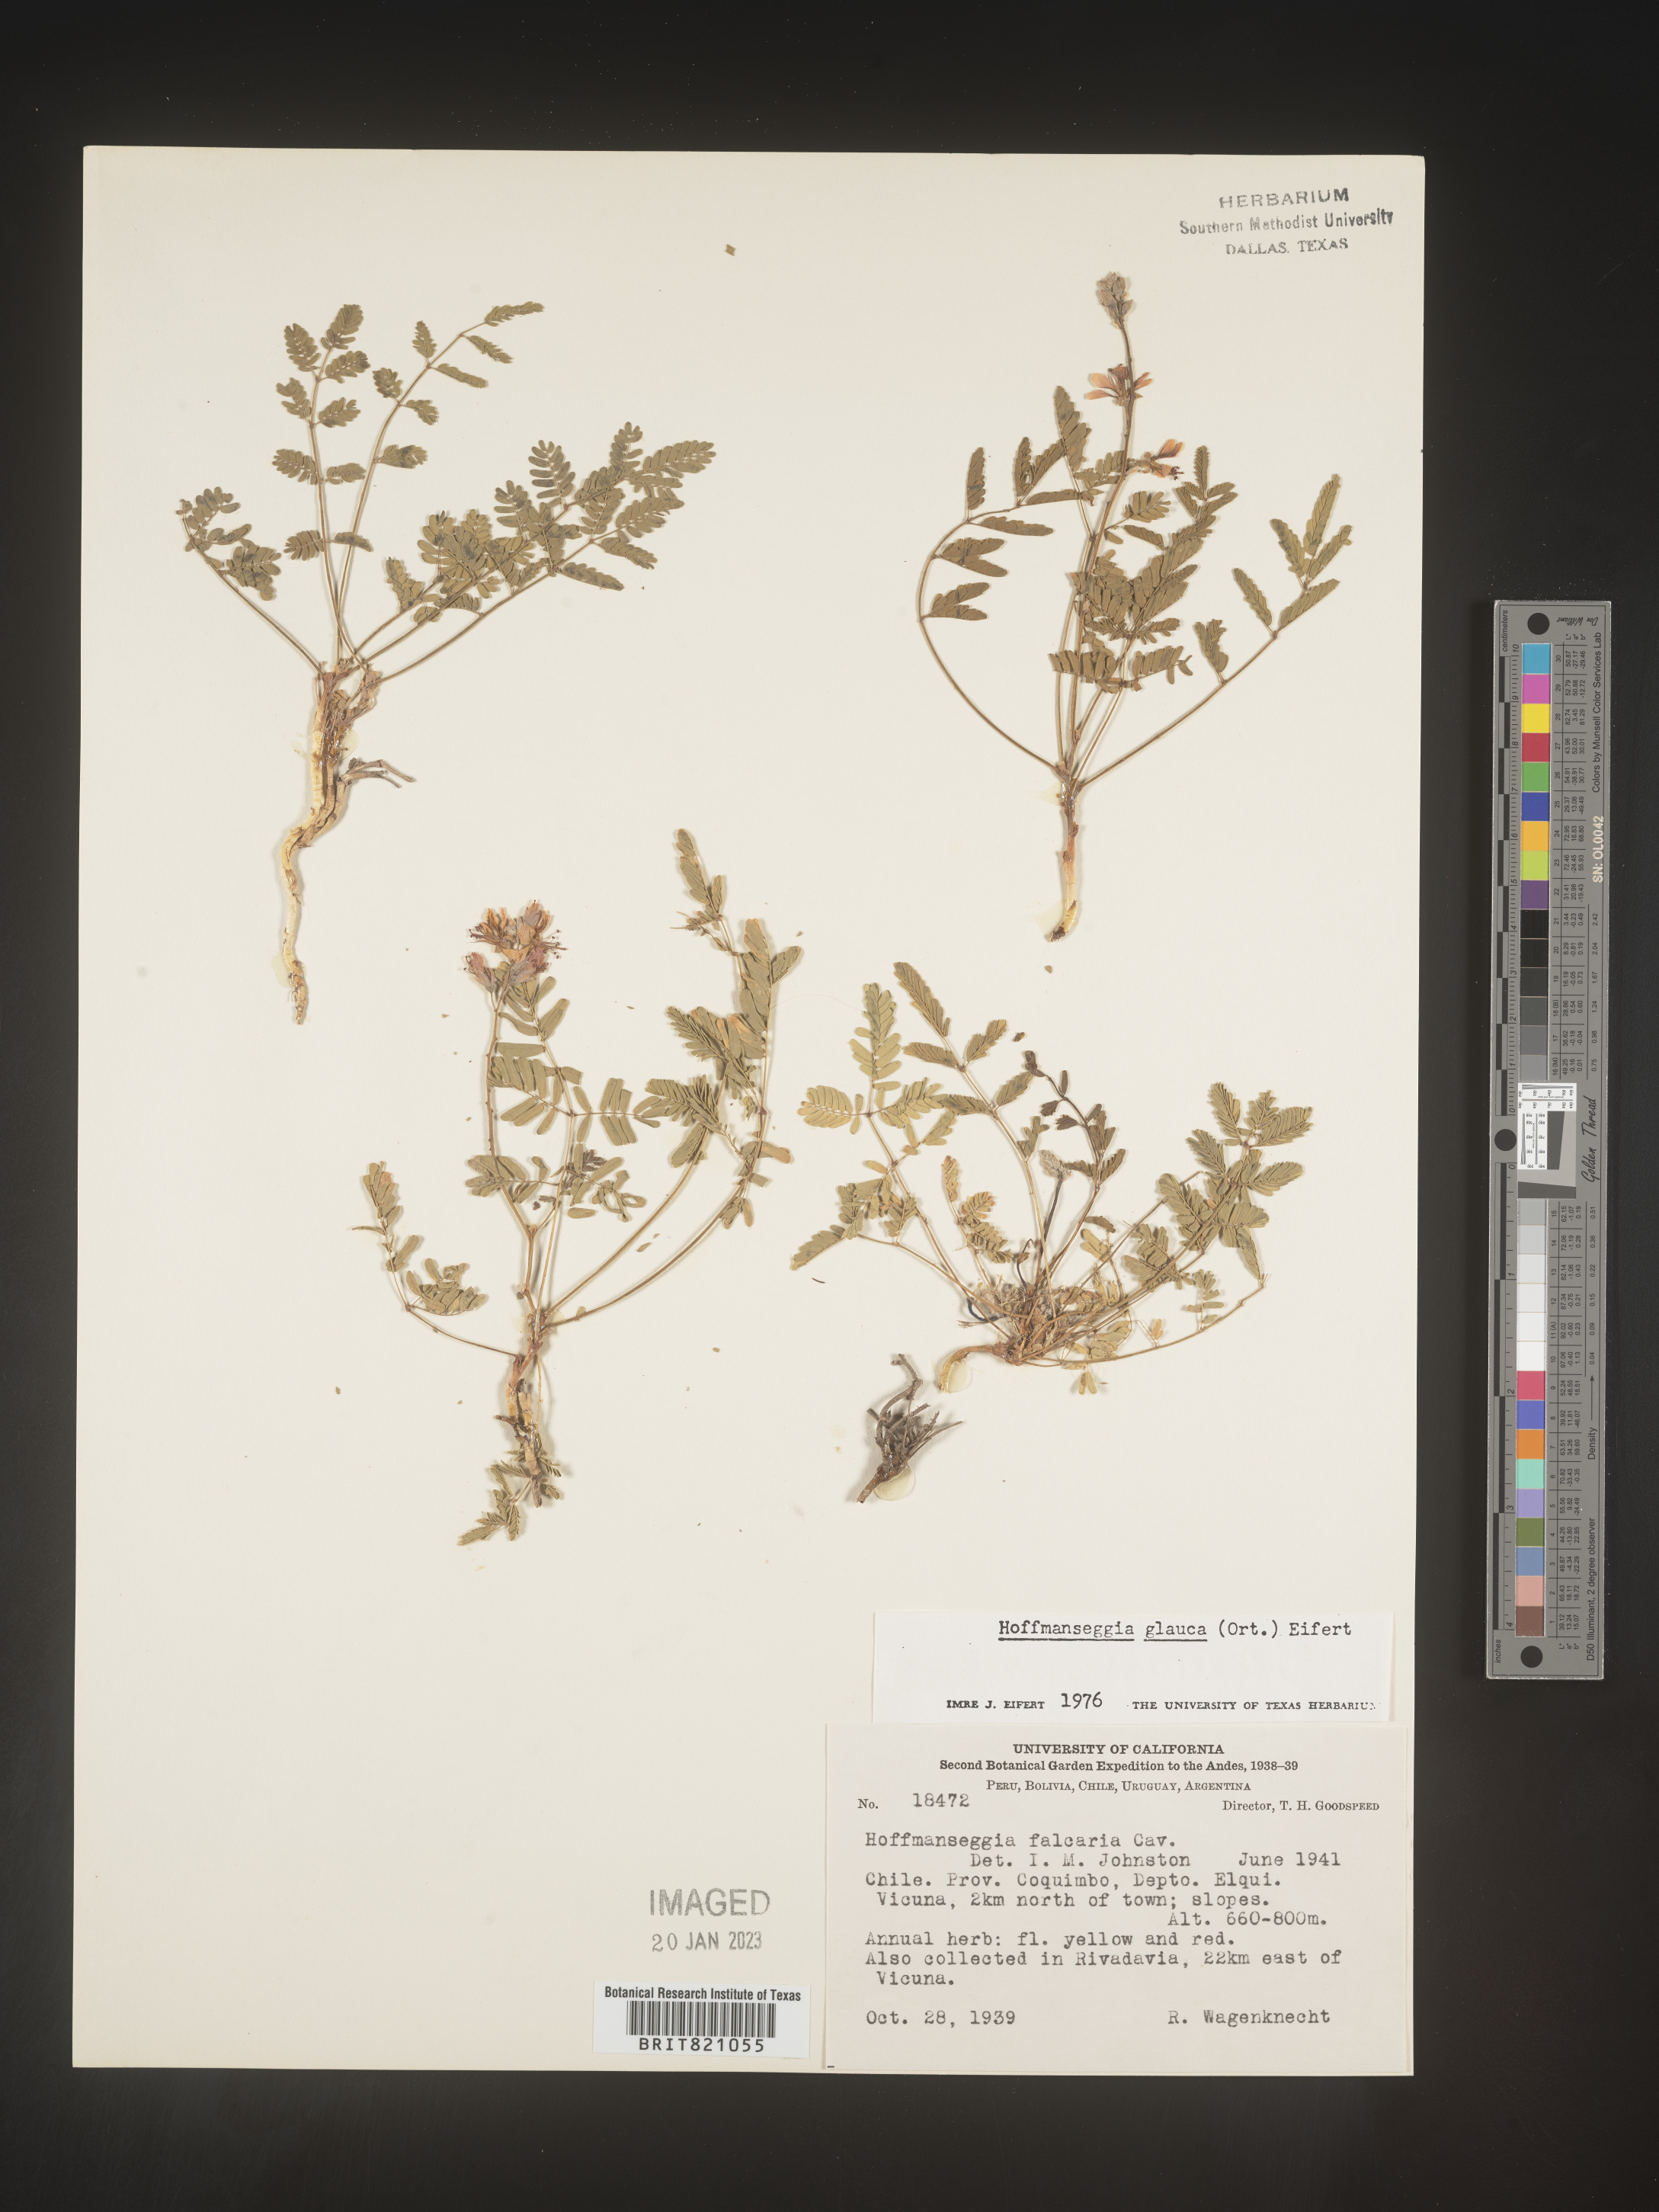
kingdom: Plantae
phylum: Tracheophyta
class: Magnoliopsida
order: Fabales
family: Fabaceae
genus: Hoffmannseggia
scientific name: Hoffmannseggia
